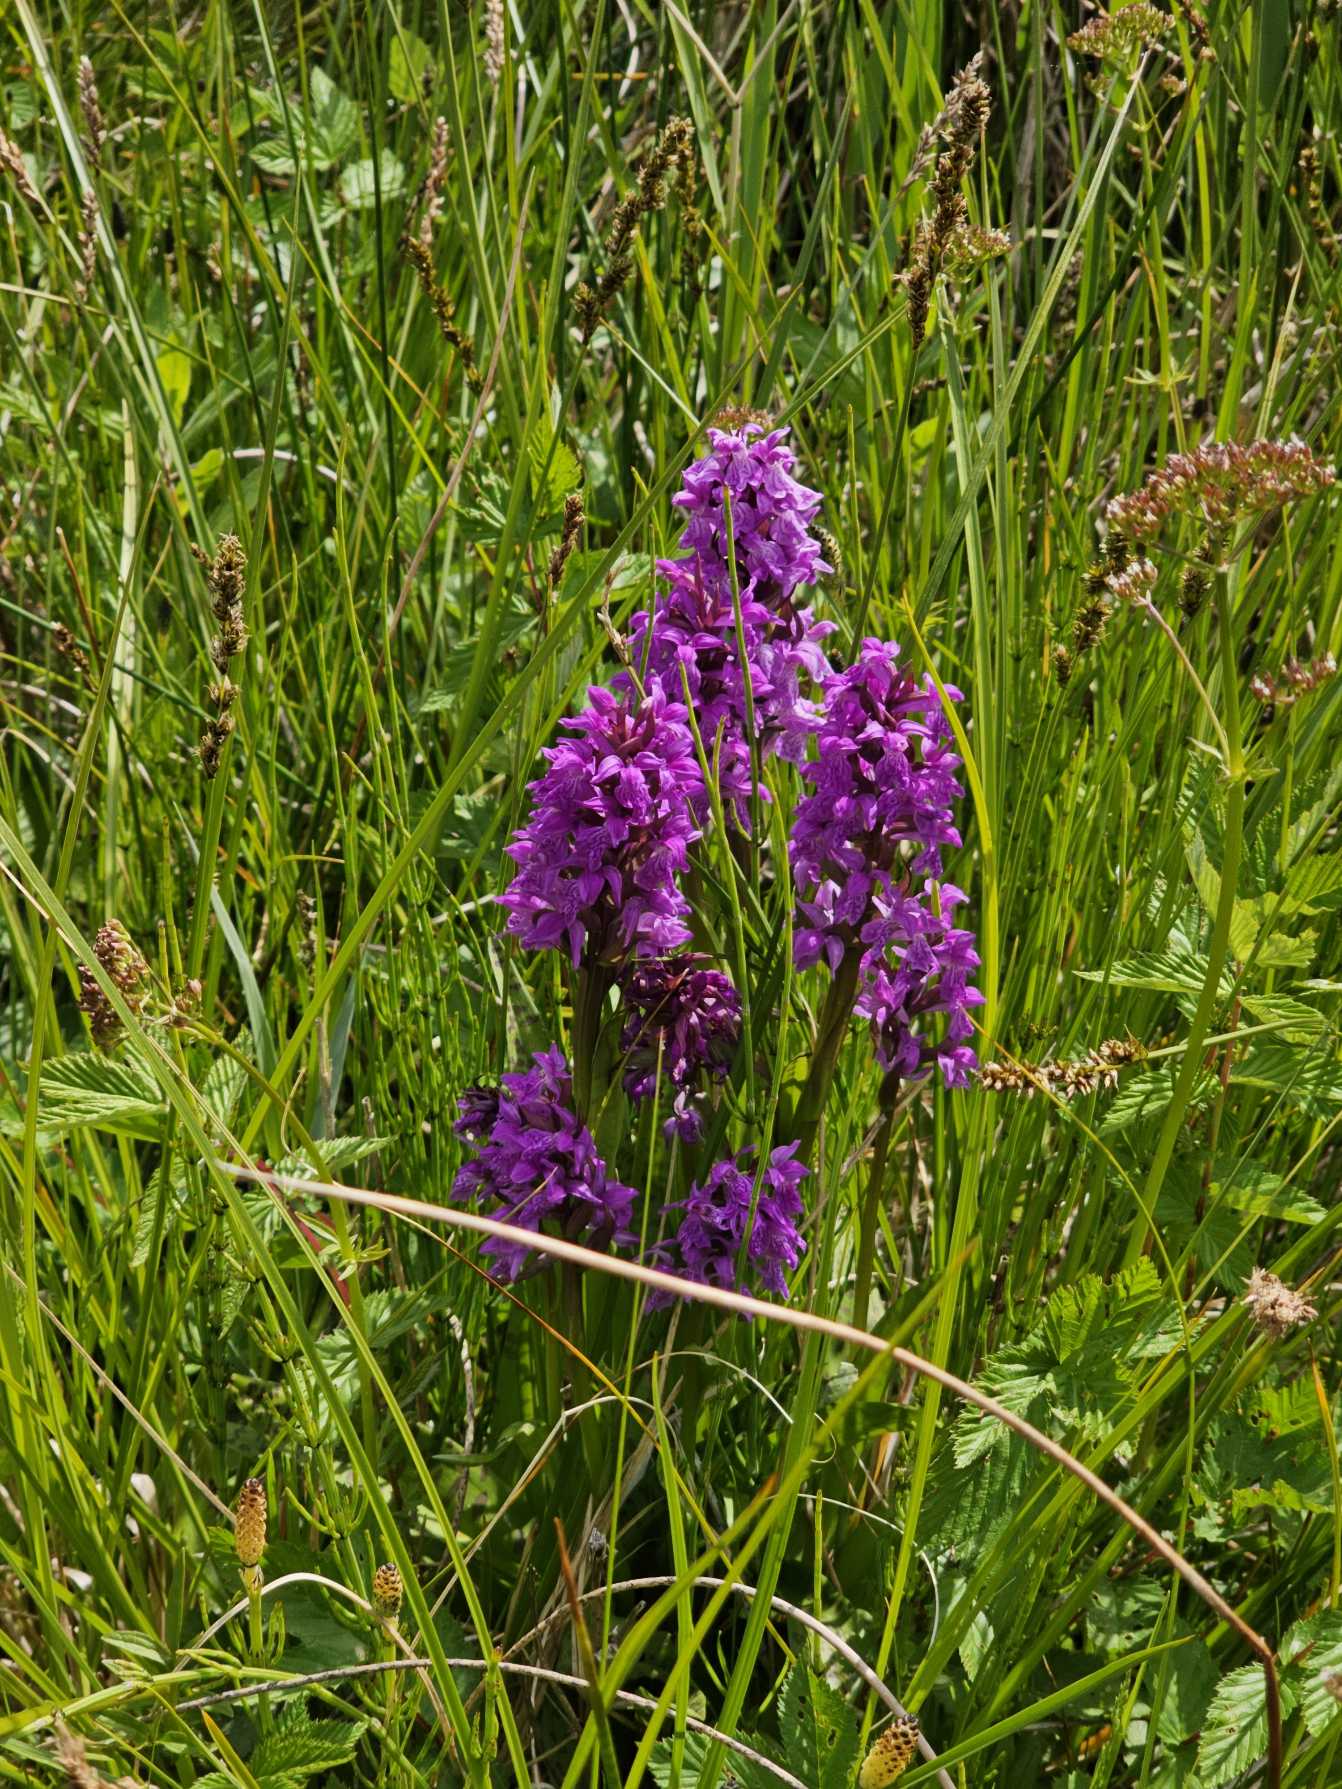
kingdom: Plantae
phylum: Tracheophyta
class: Liliopsida
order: Asparagales
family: Orchidaceae
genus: Dactylorhiza
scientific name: Dactylorhiza majalis
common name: Maj-gøgeurt
